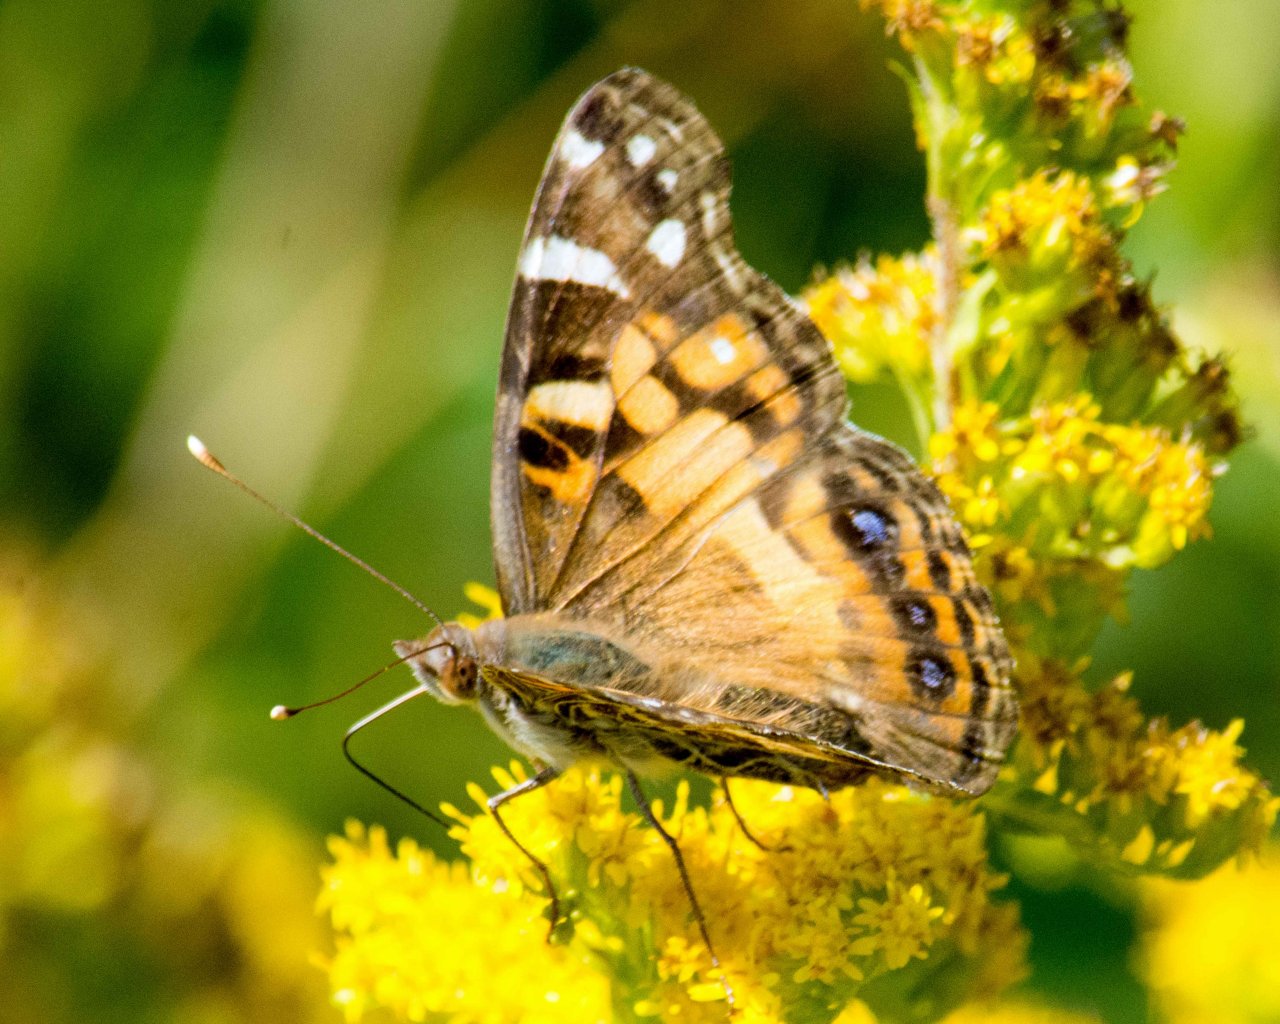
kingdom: Animalia
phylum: Arthropoda
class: Insecta
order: Lepidoptera
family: Nymphalidae
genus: Vanessa
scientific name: Vanessa virginiensis
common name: American Lady
